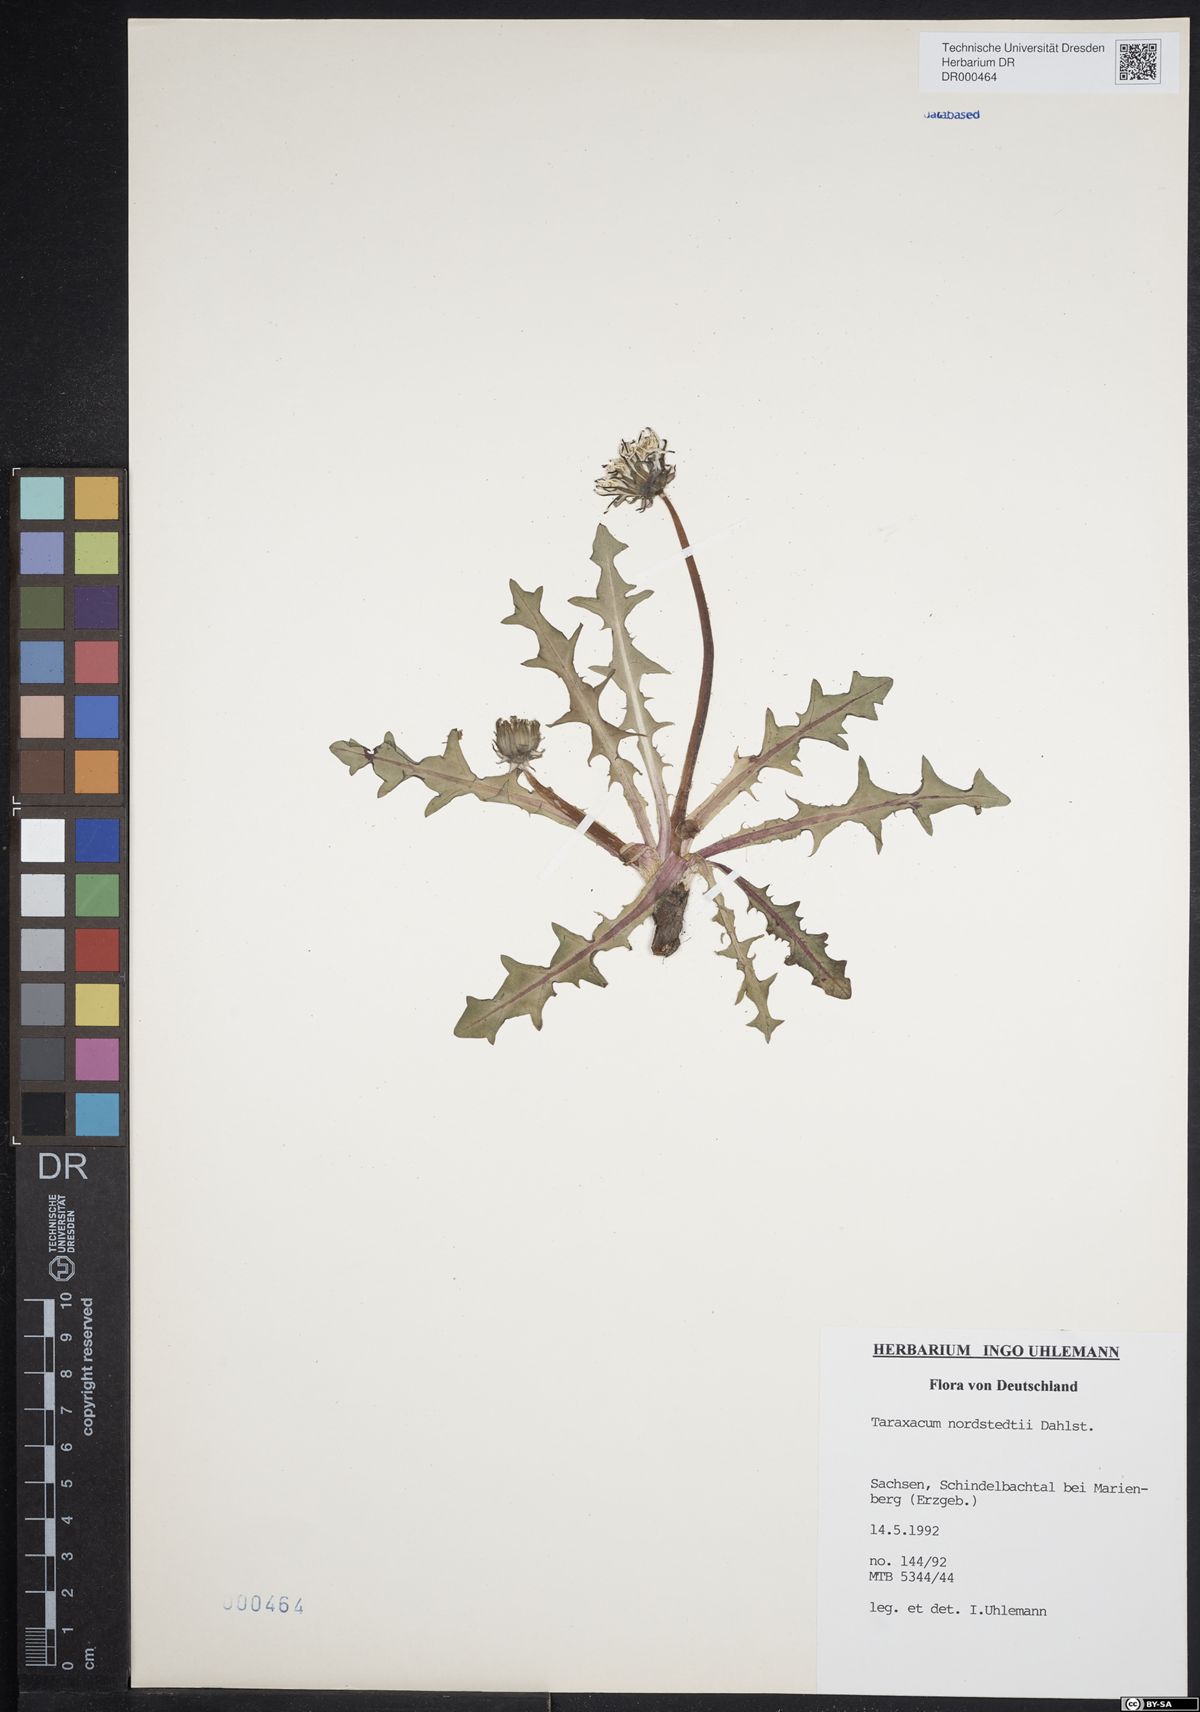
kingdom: Plantae
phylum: Tracheophyta
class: Magnoliopsida
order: Asterales
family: Asteraceae
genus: Taraxacum
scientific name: Taraxacum nordstedtii
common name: Nordstedt's dandelion
